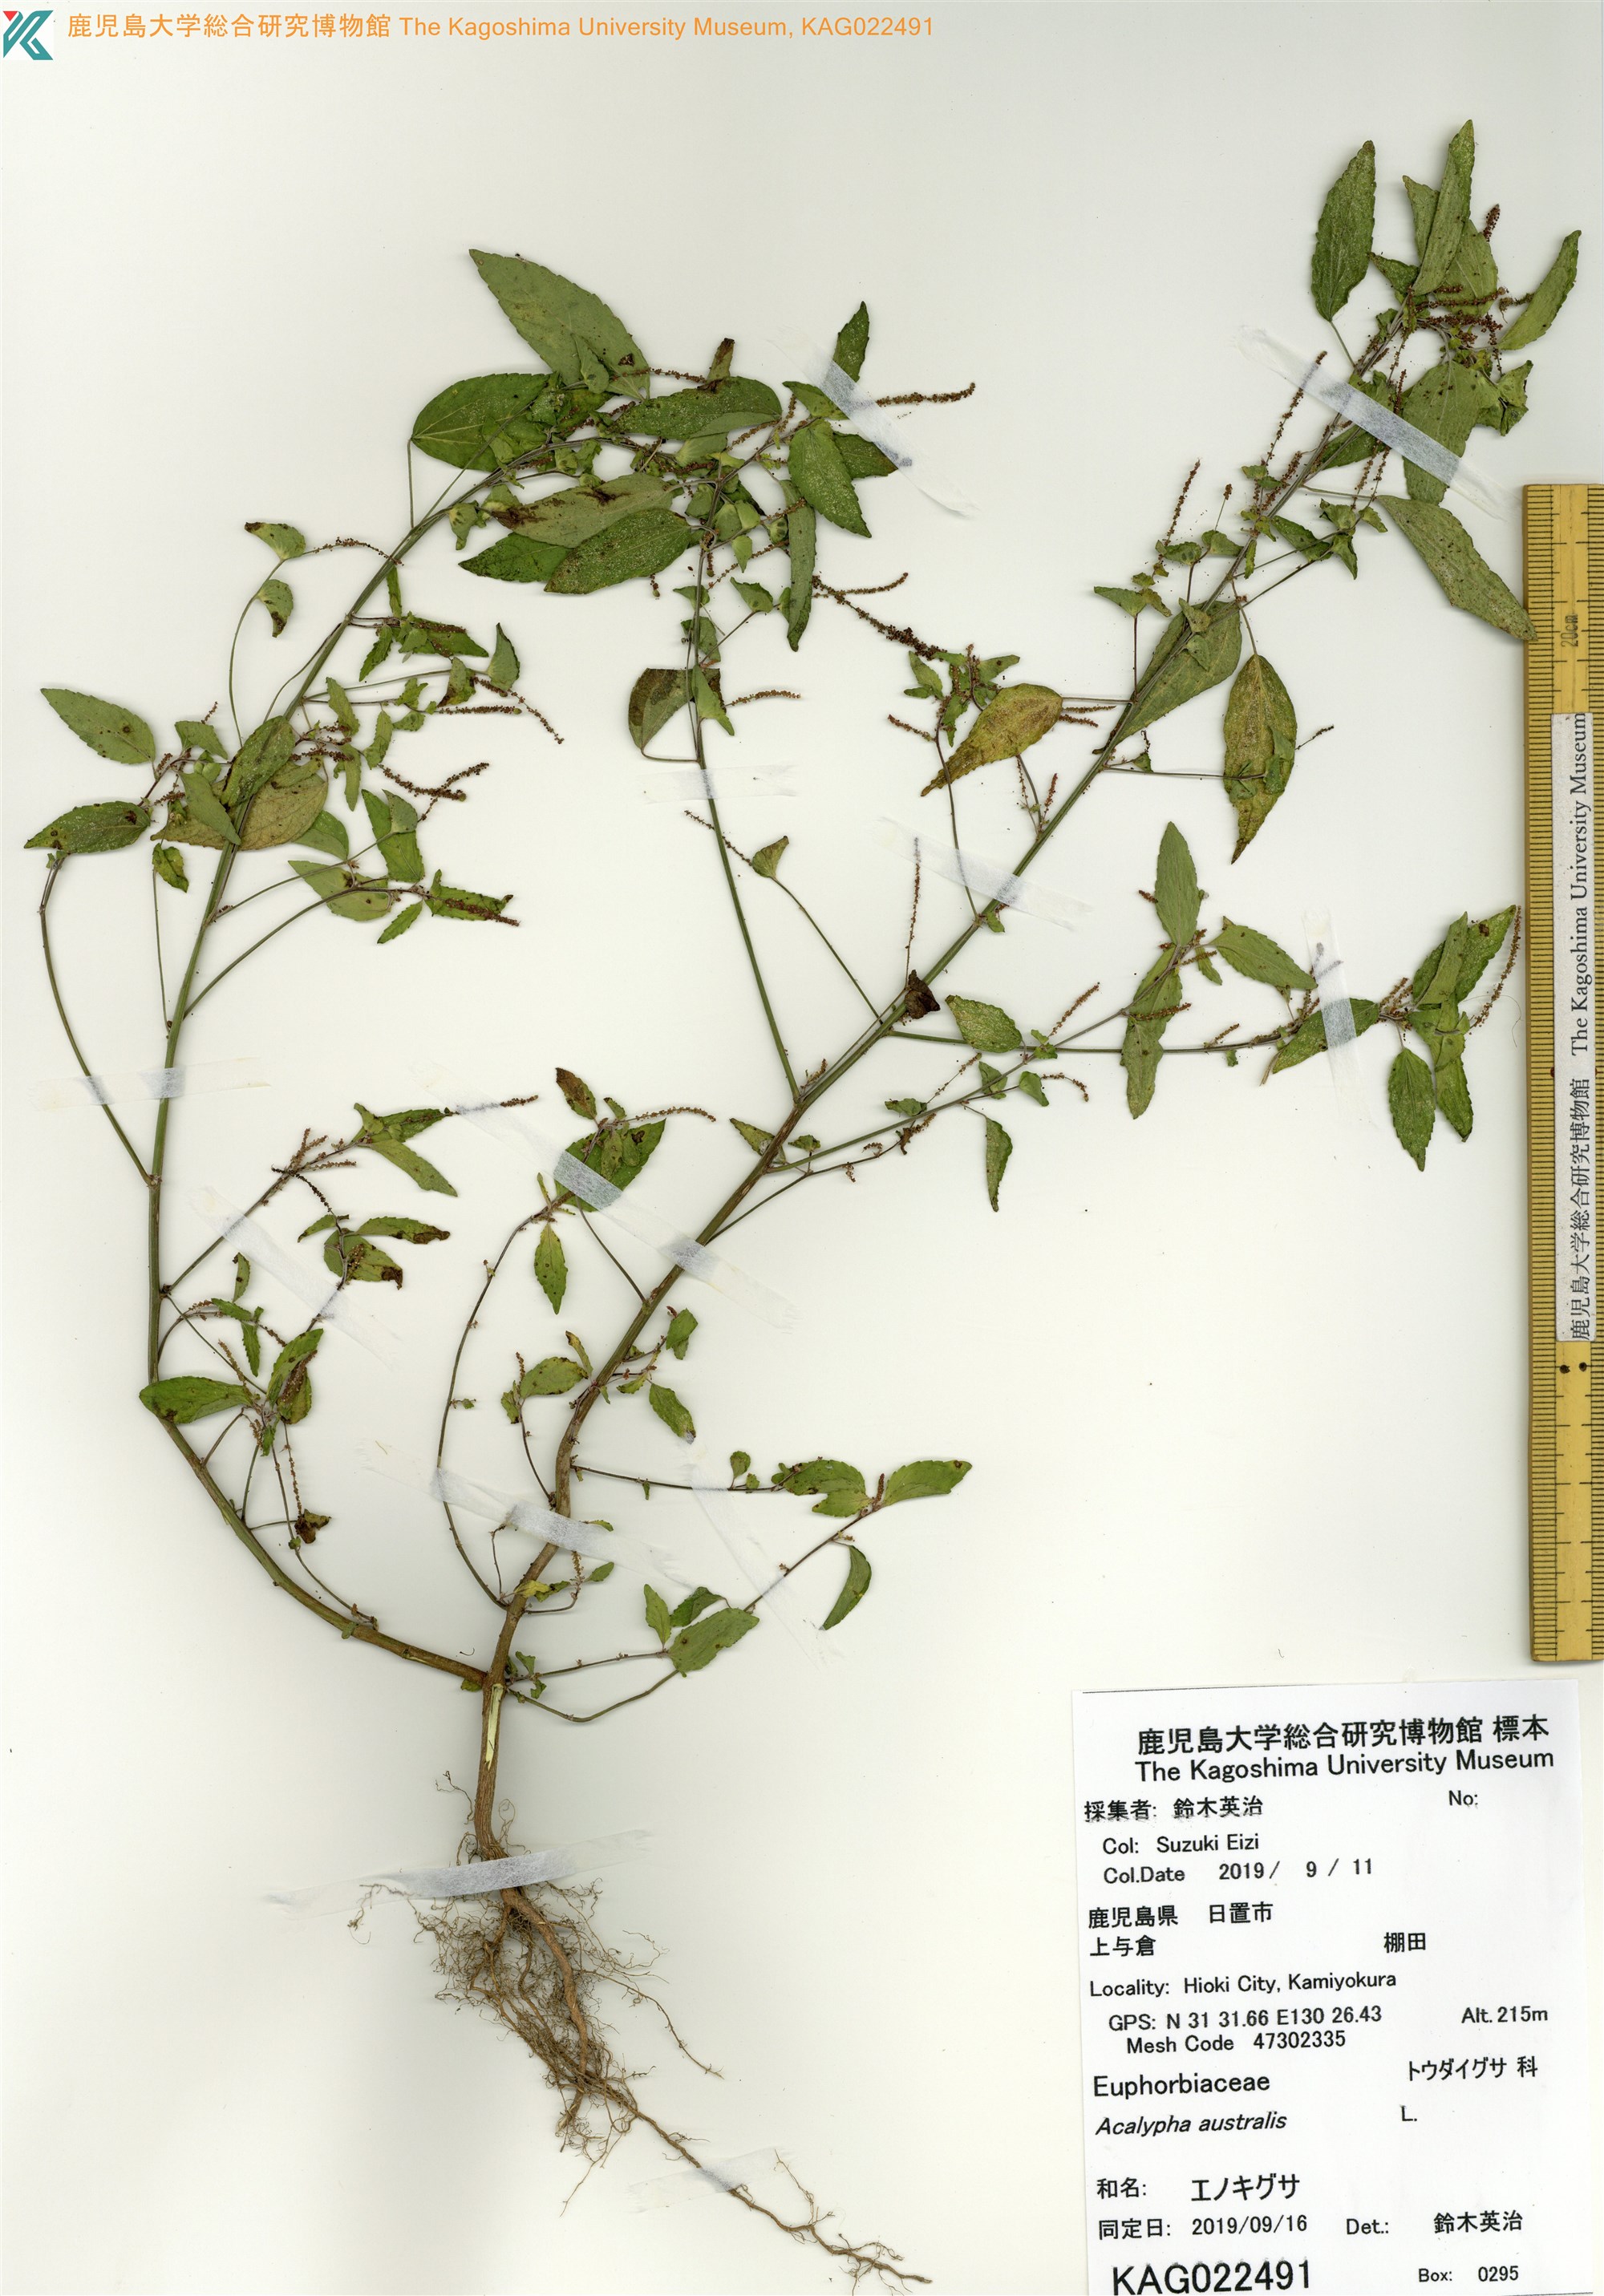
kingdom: Plantae
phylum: Tracheophyta
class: Magnoliopsida
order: Malpighiales
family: Euphorbiaceae
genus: Acalypha
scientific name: Acalypha australis
